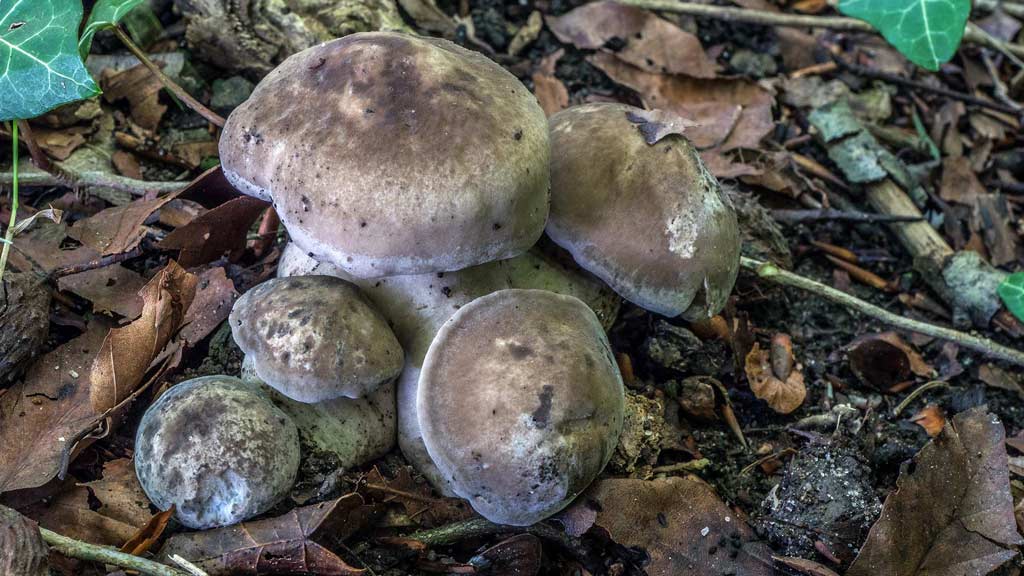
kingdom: Fungi
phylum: Basidiomycota
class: Agaricomycetes
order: Agaricales
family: Lyophyllaceae
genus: Lyophyllum
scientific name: Lyophyllum eustygium
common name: tykbladet gråblad
